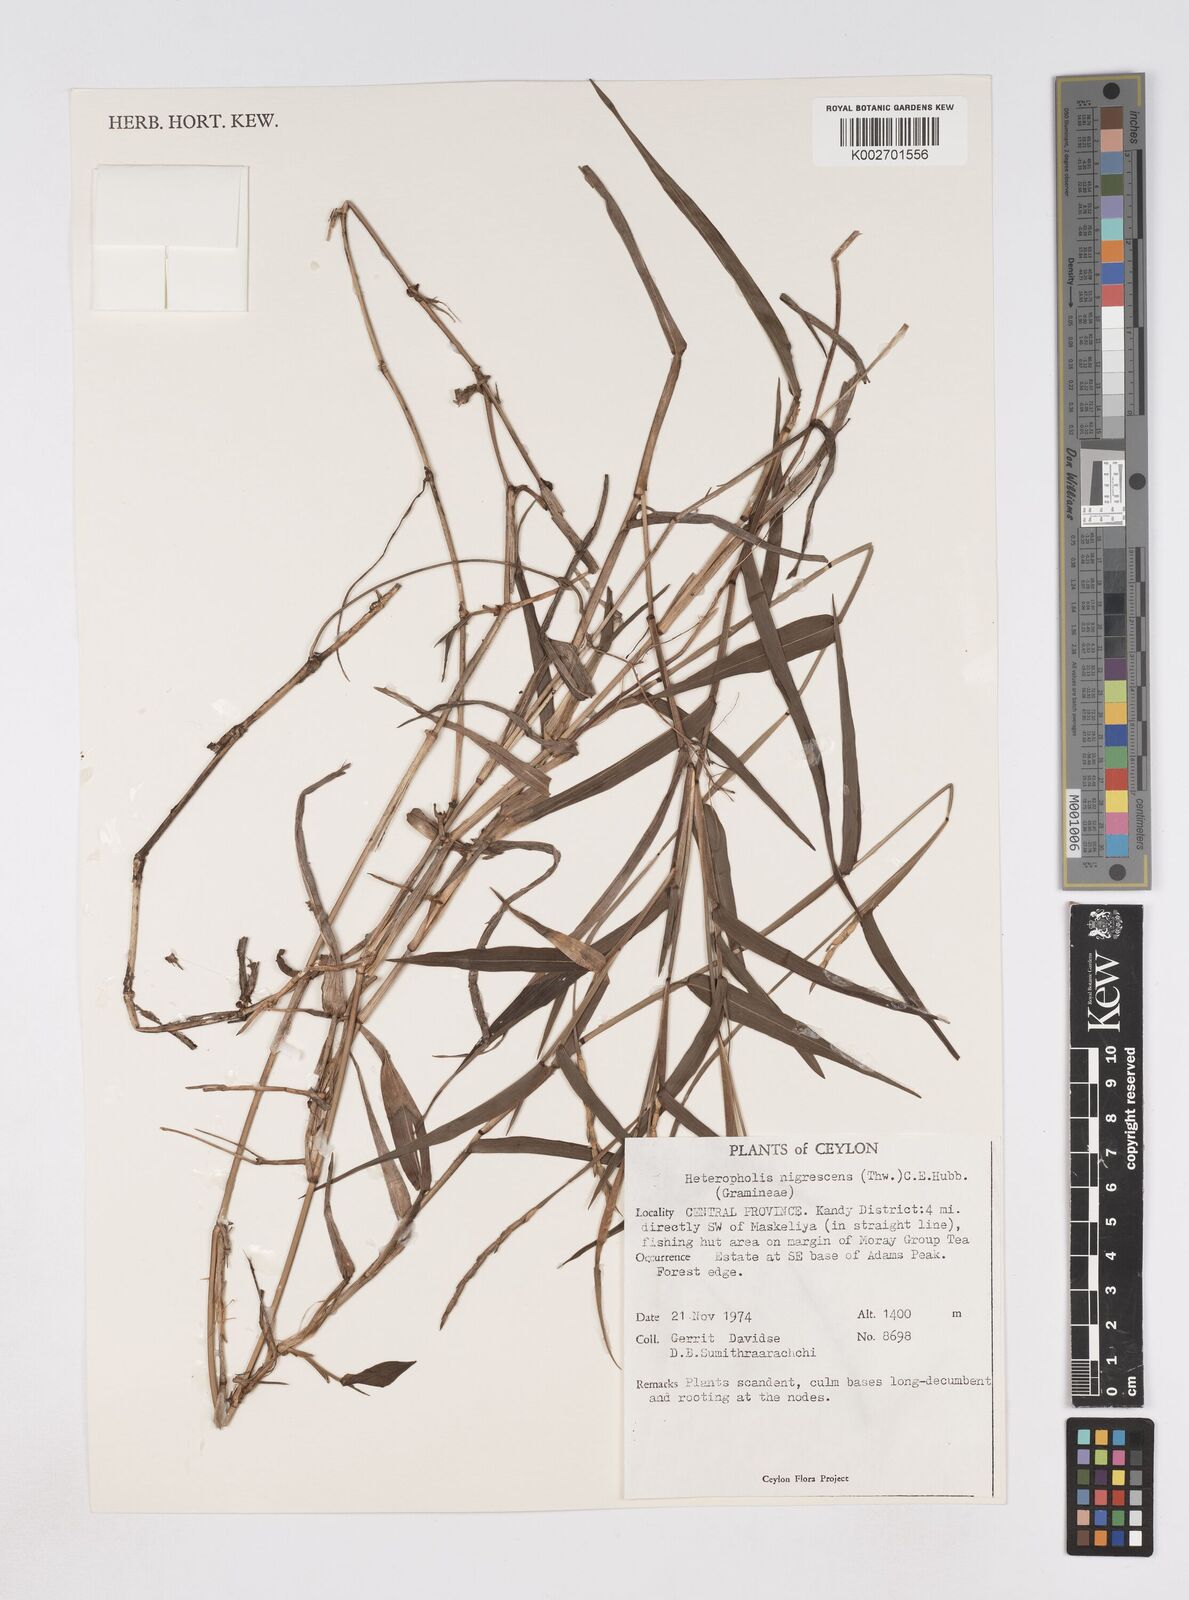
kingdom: Plantae
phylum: Tracheophyta
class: Liliopsida
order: Poales
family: Poaceae
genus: Heteropholis
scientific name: Heteropholis nigrescens
